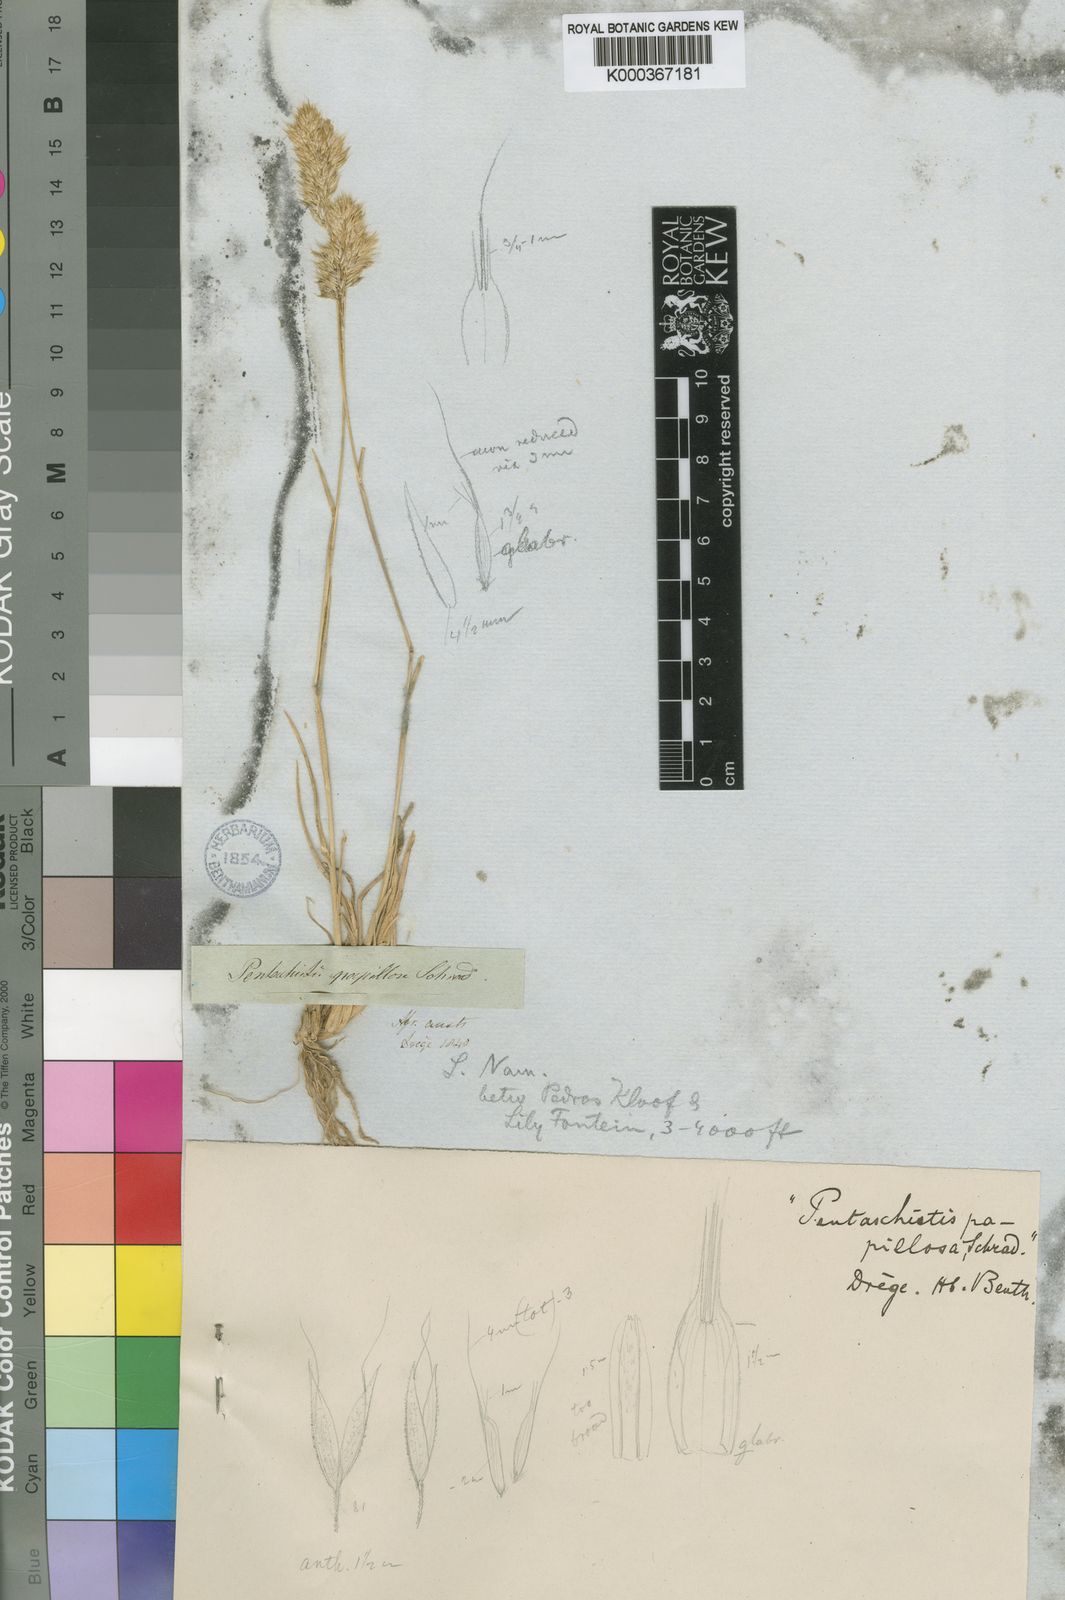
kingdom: Plantae
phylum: Tracheophyta
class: Liliopsida
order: Poales
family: Poaceae
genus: Pentameris
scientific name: Pentameris pallida
